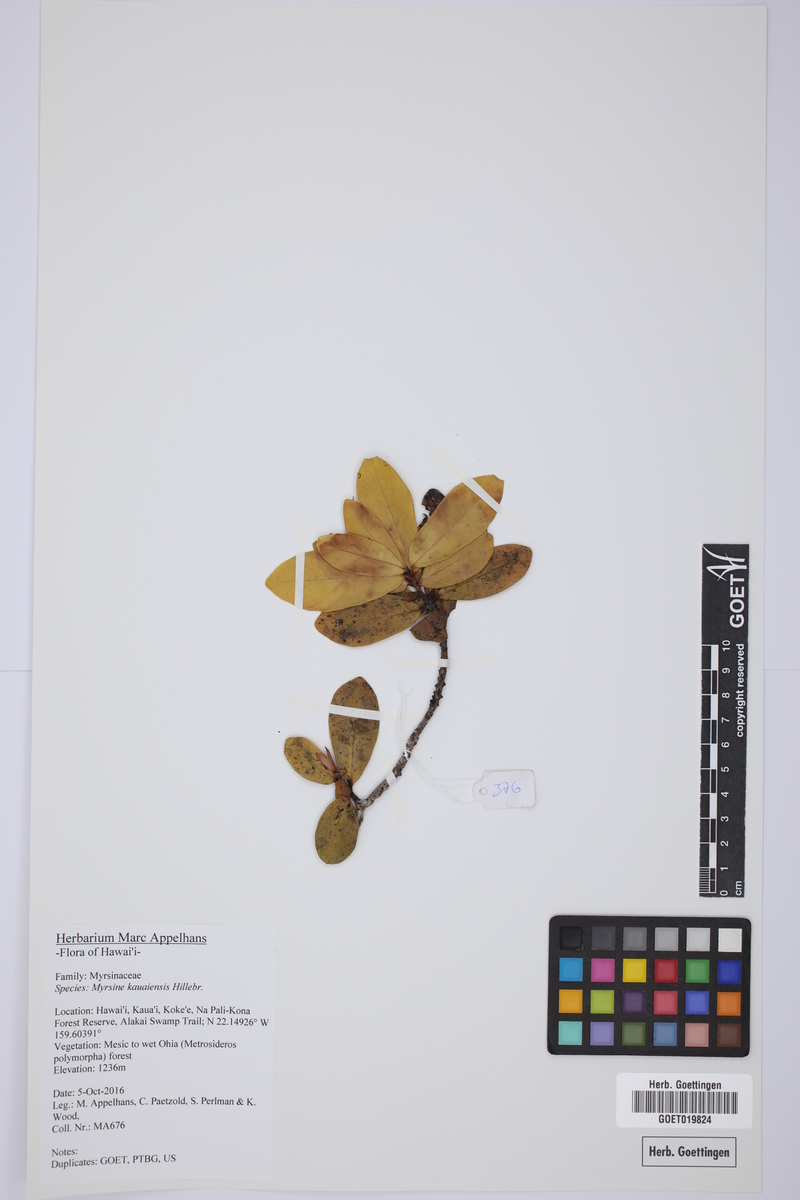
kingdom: Plantae
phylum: Tracheophyta
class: Magnoliopsida
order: Ericales
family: Primulaceae
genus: Myrsine
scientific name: Myrsine kauaiensis
